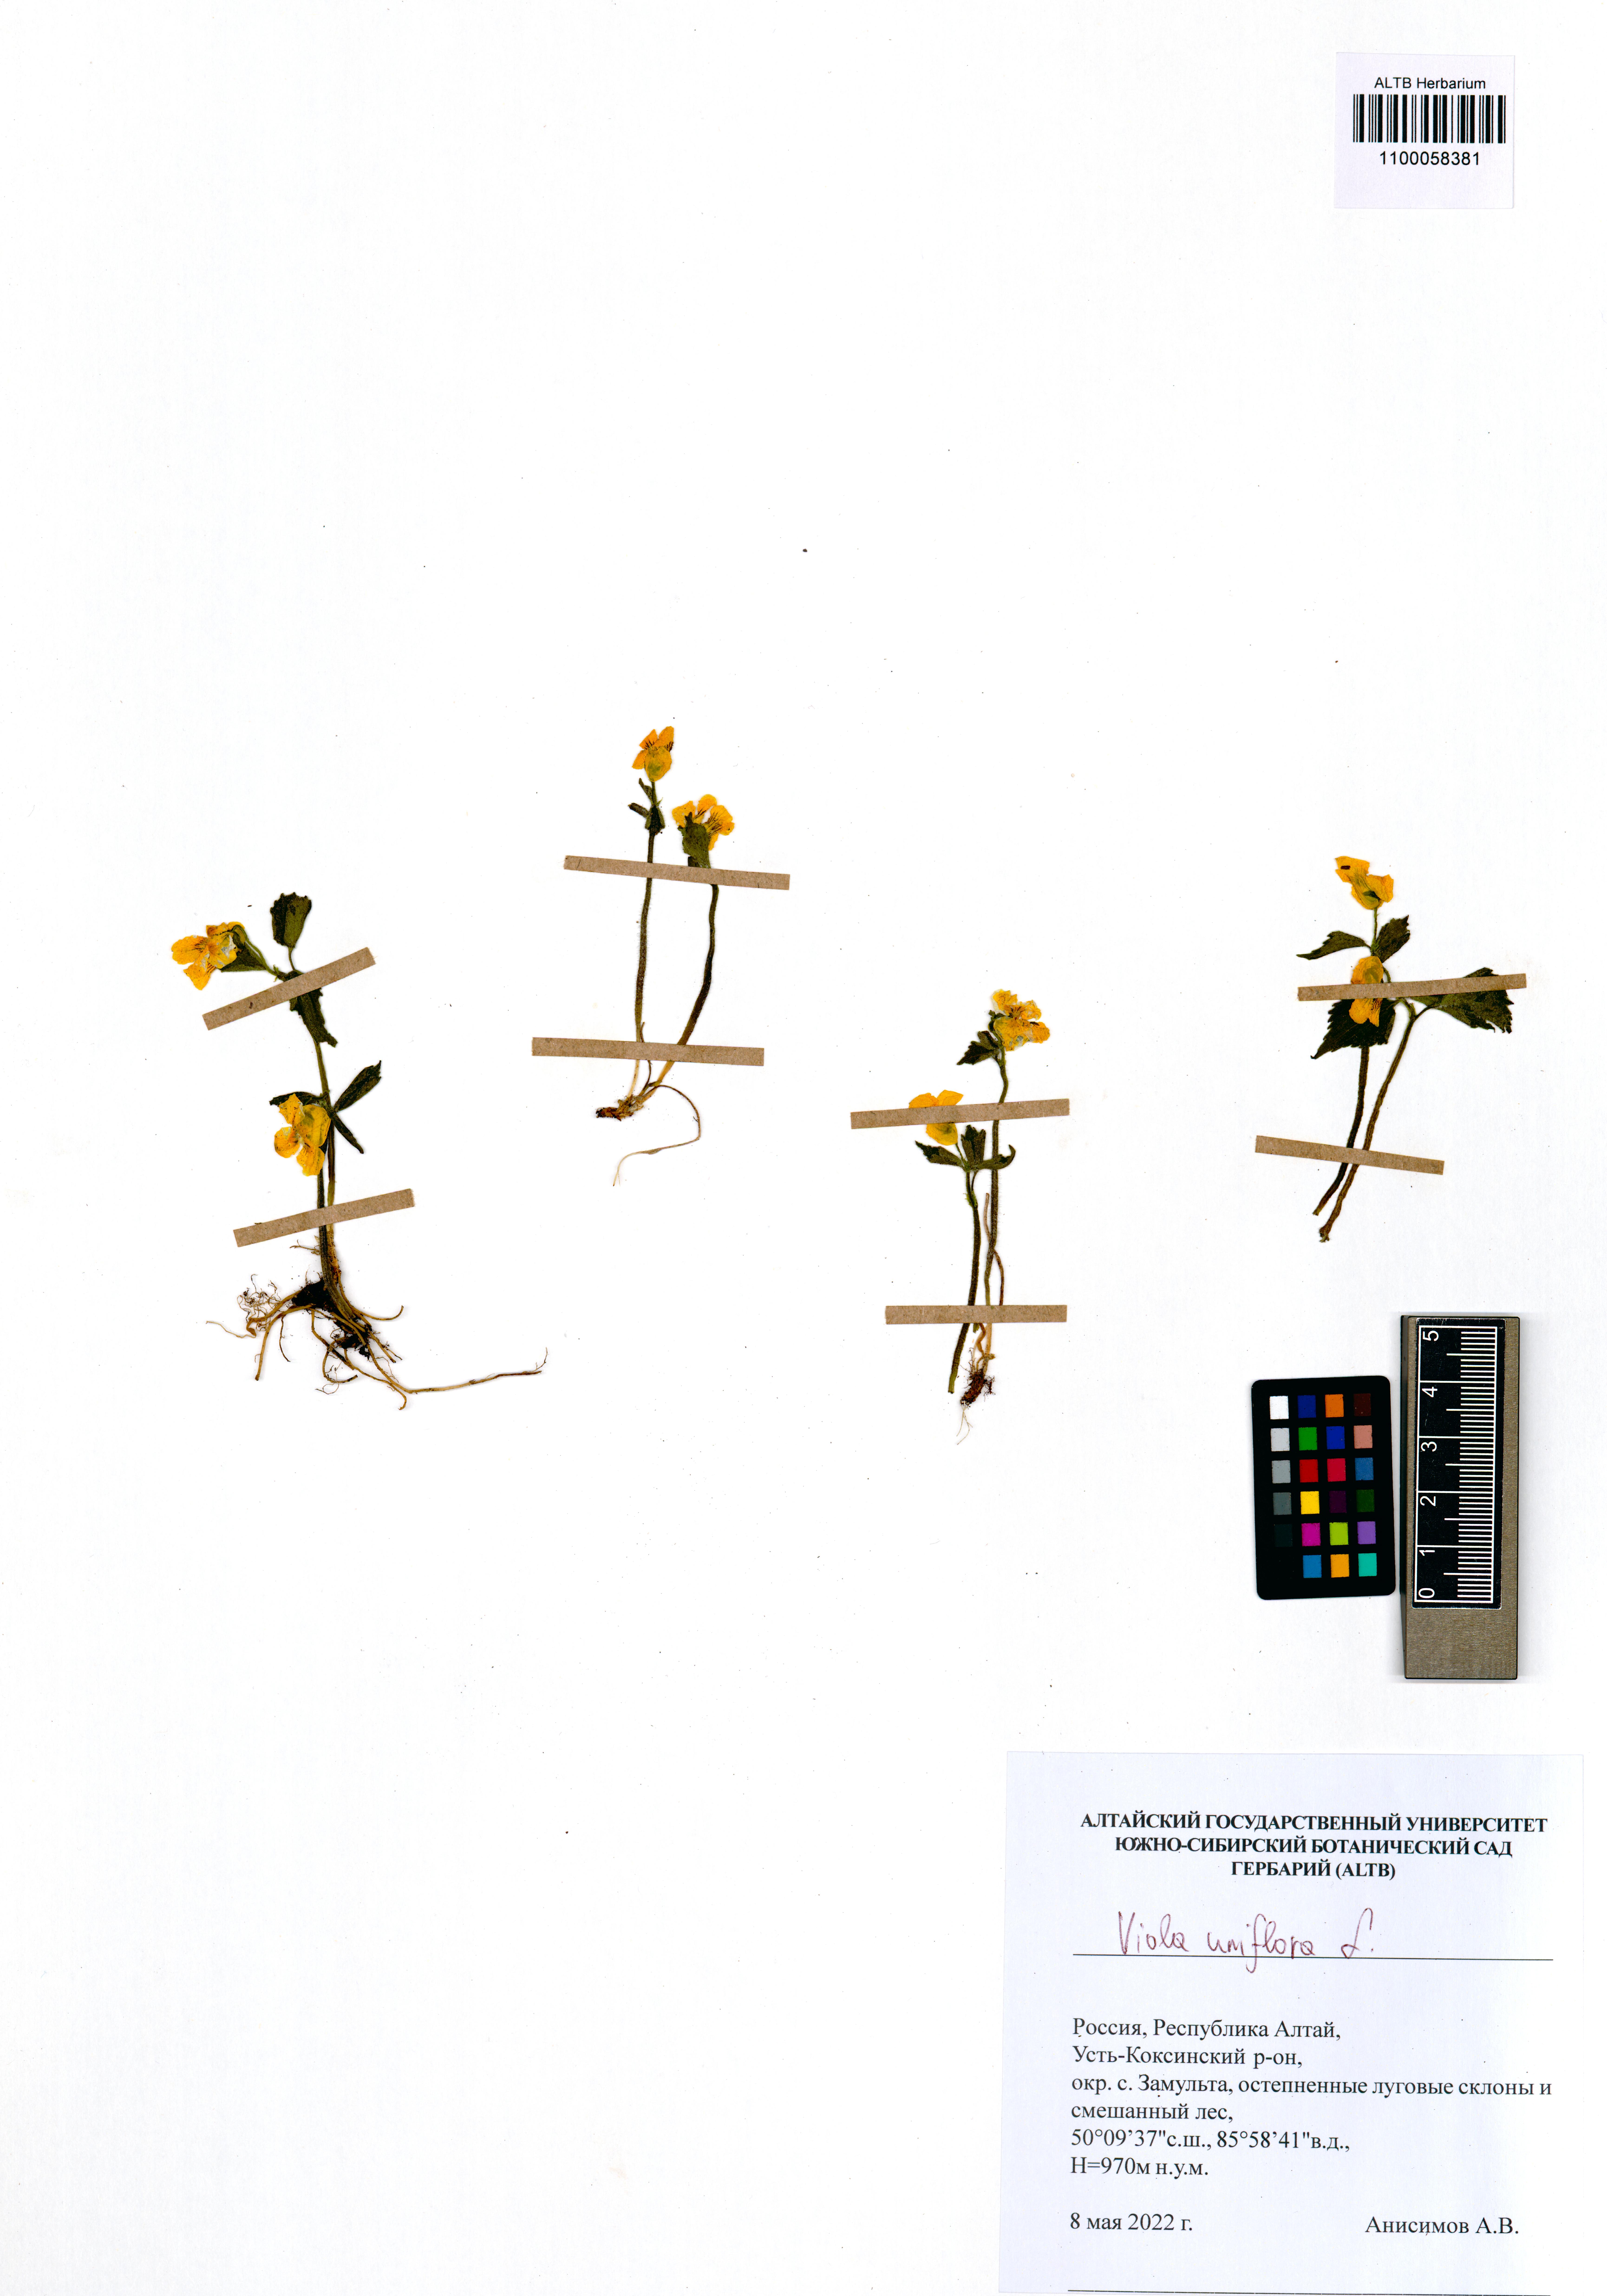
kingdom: Plantae
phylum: Tracheophyta
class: Magnoliopsida
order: Malpighiales
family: Violaceae
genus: Viola
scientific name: Viola uniflora
